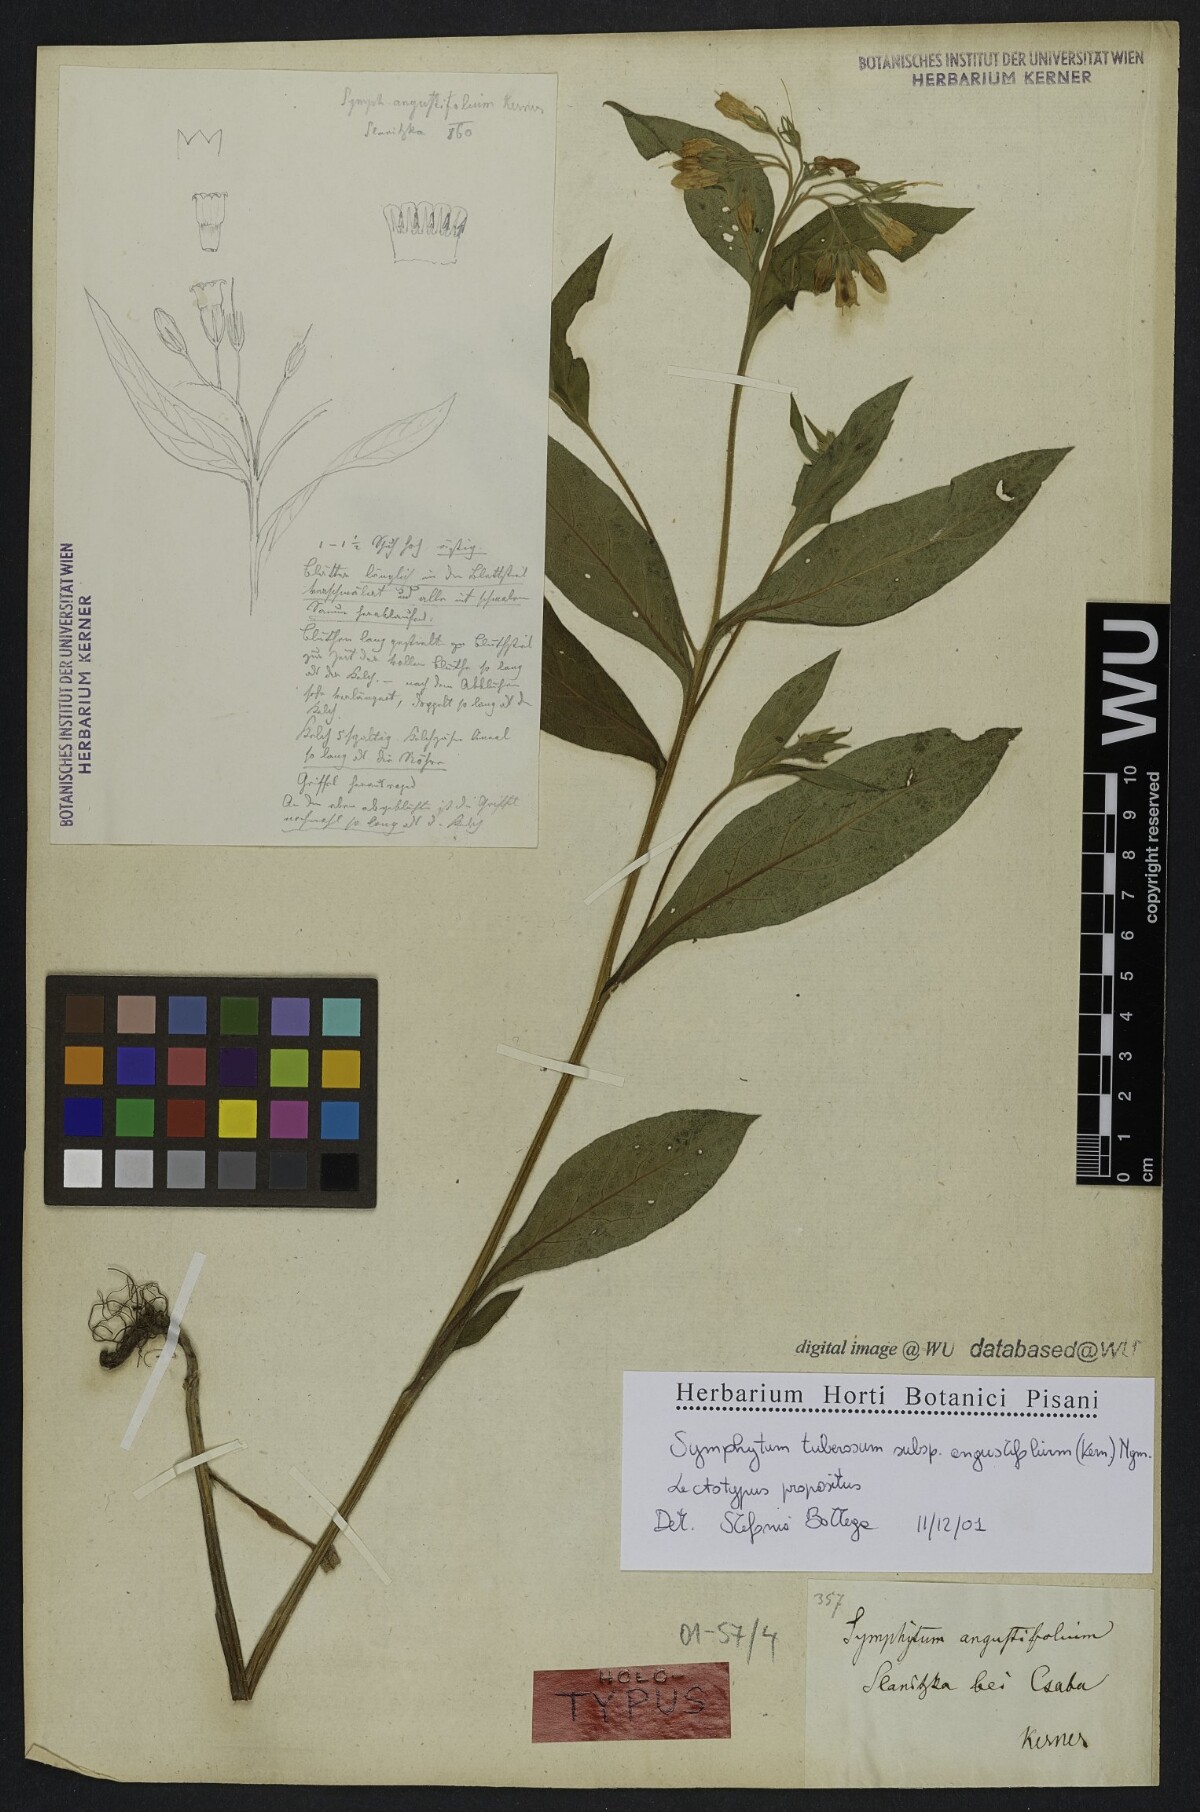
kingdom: Plantae
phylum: Tracheophyta
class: Magnoliopsida
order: Boraginales
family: Boraginaceae
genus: Symphytum
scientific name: Symphytum tuberosum
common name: Tuberous comfrey
